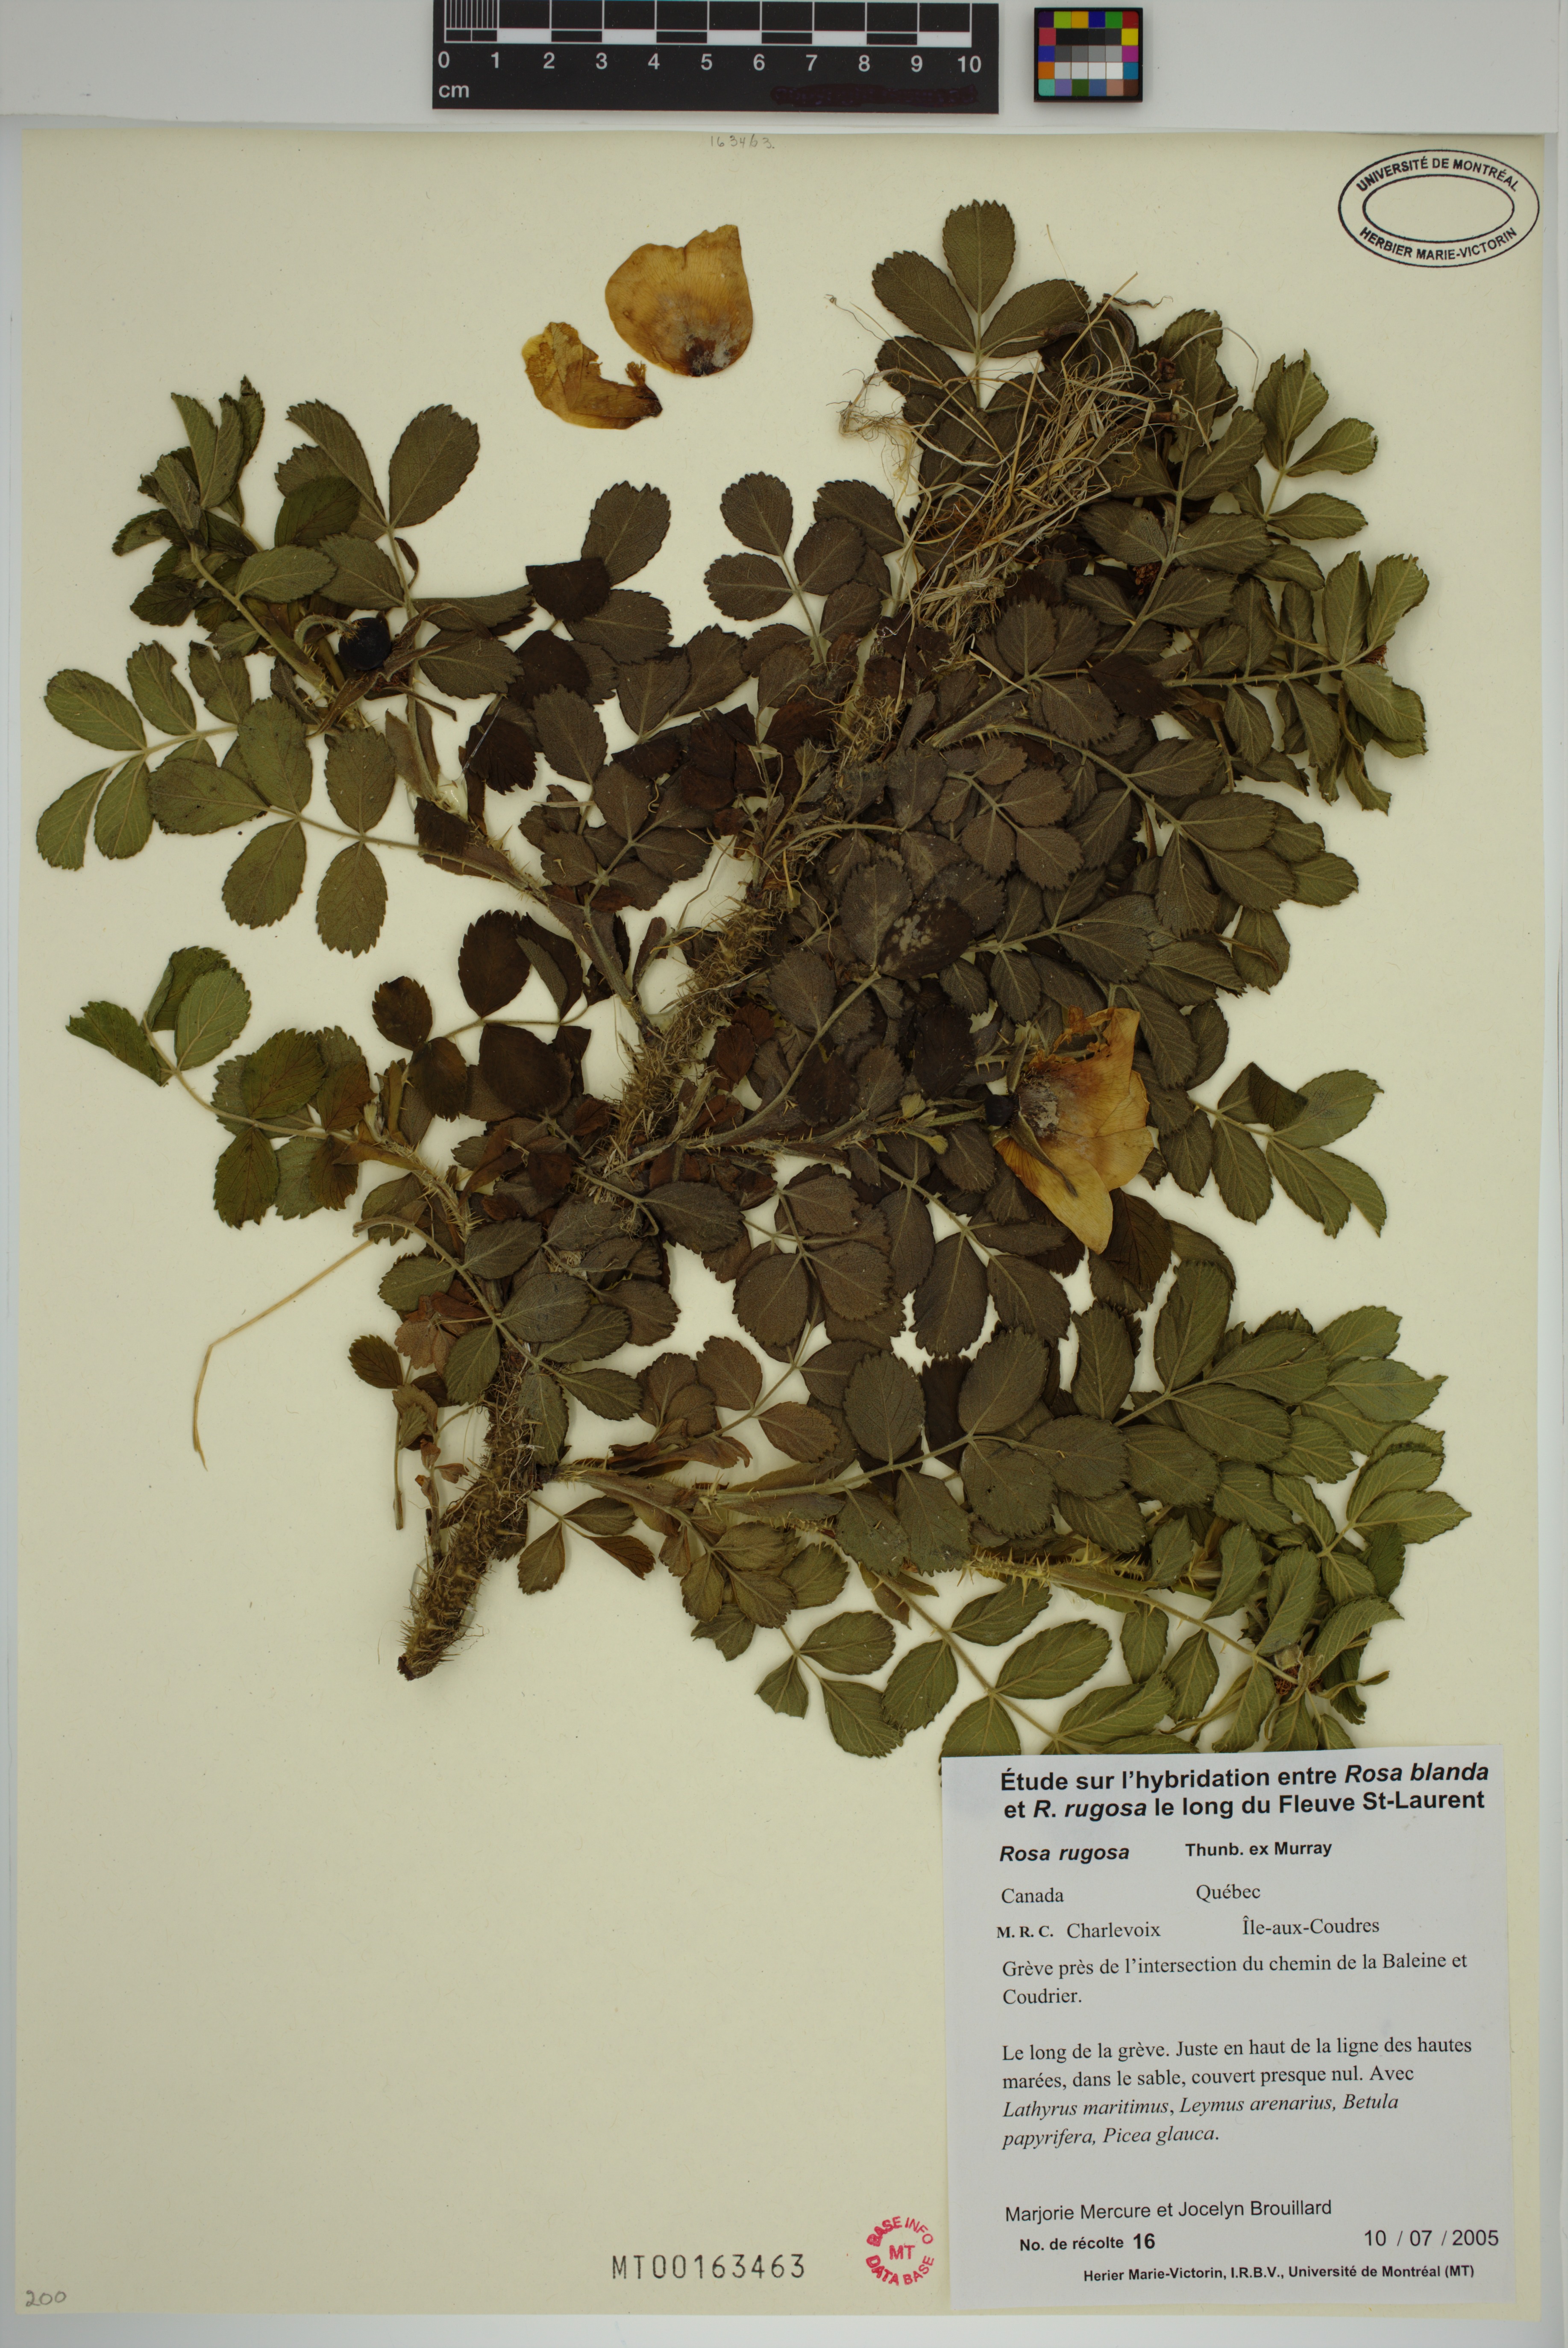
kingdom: Plantae
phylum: Tracheophyta
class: Magnoliopsida
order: Rosales
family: Rosaceae
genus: Rosa
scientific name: Rosa rugosa
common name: Japanese rose
